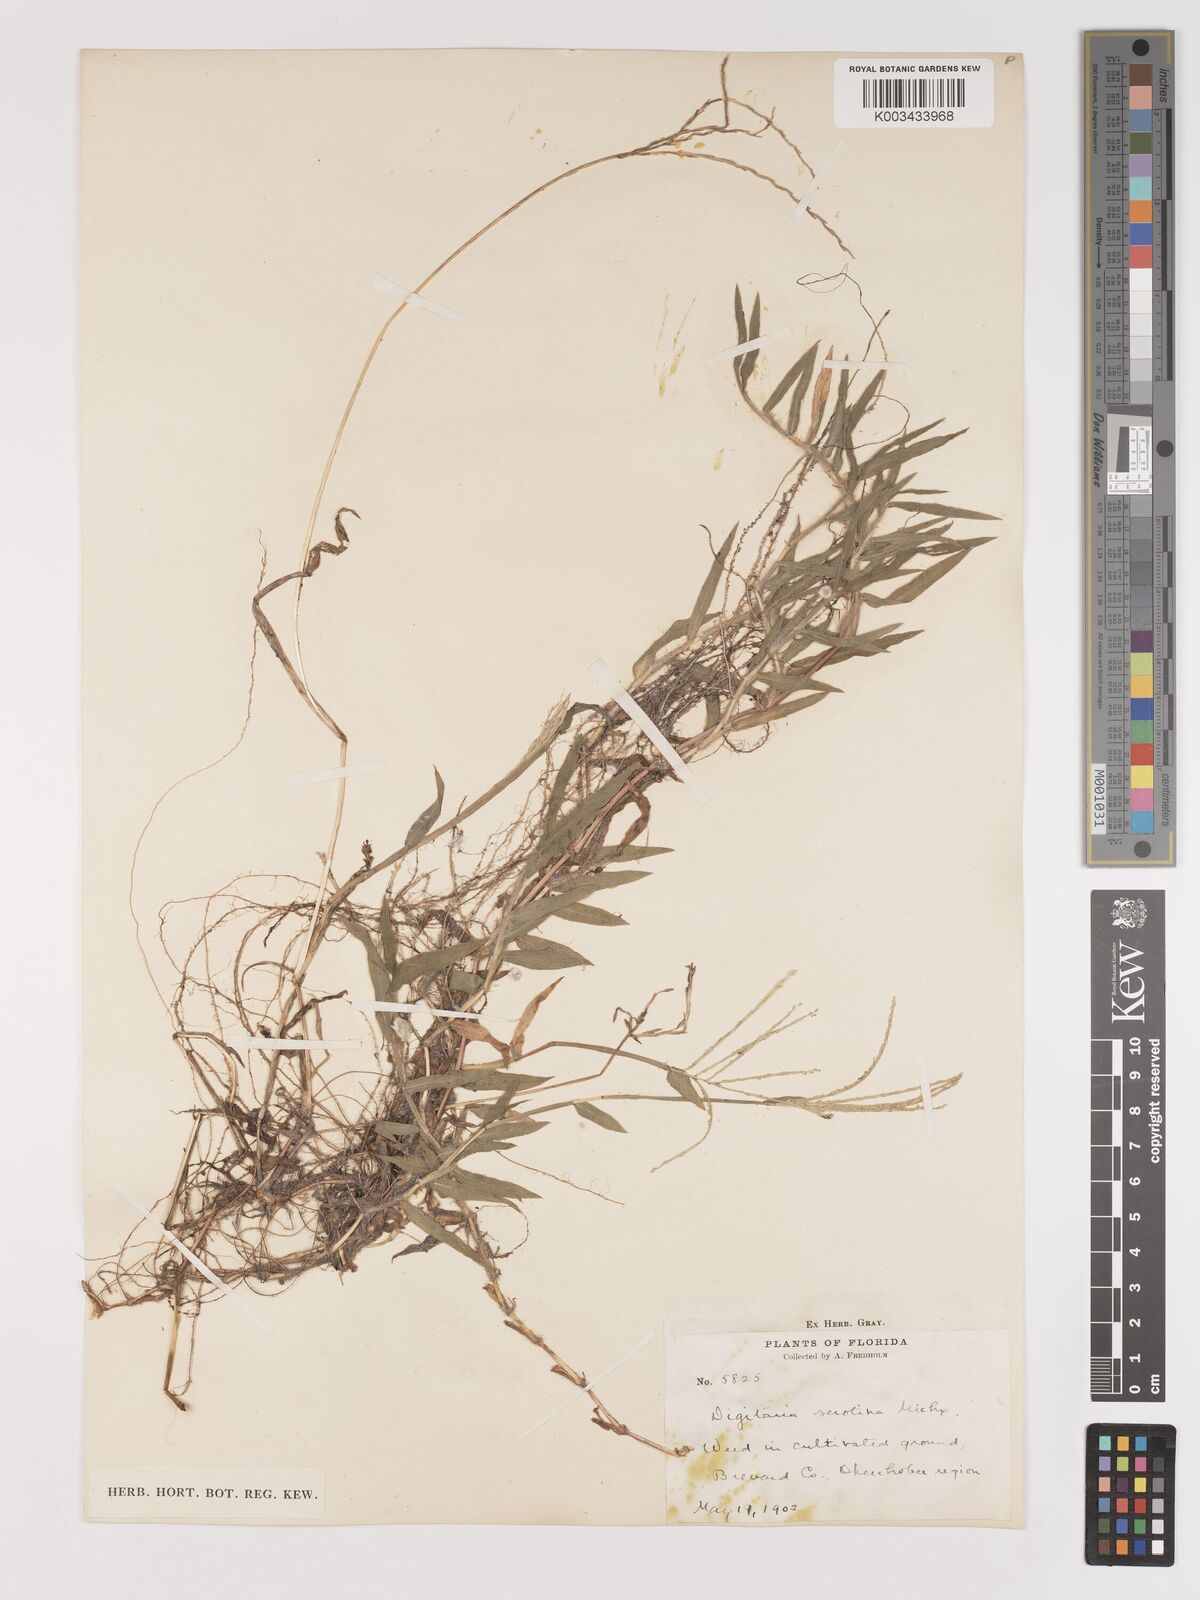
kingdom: Plantae
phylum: Tracheophyta
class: Liliopsida
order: Poales
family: Poaceae
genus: Digitaria
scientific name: Digitaria serotina
